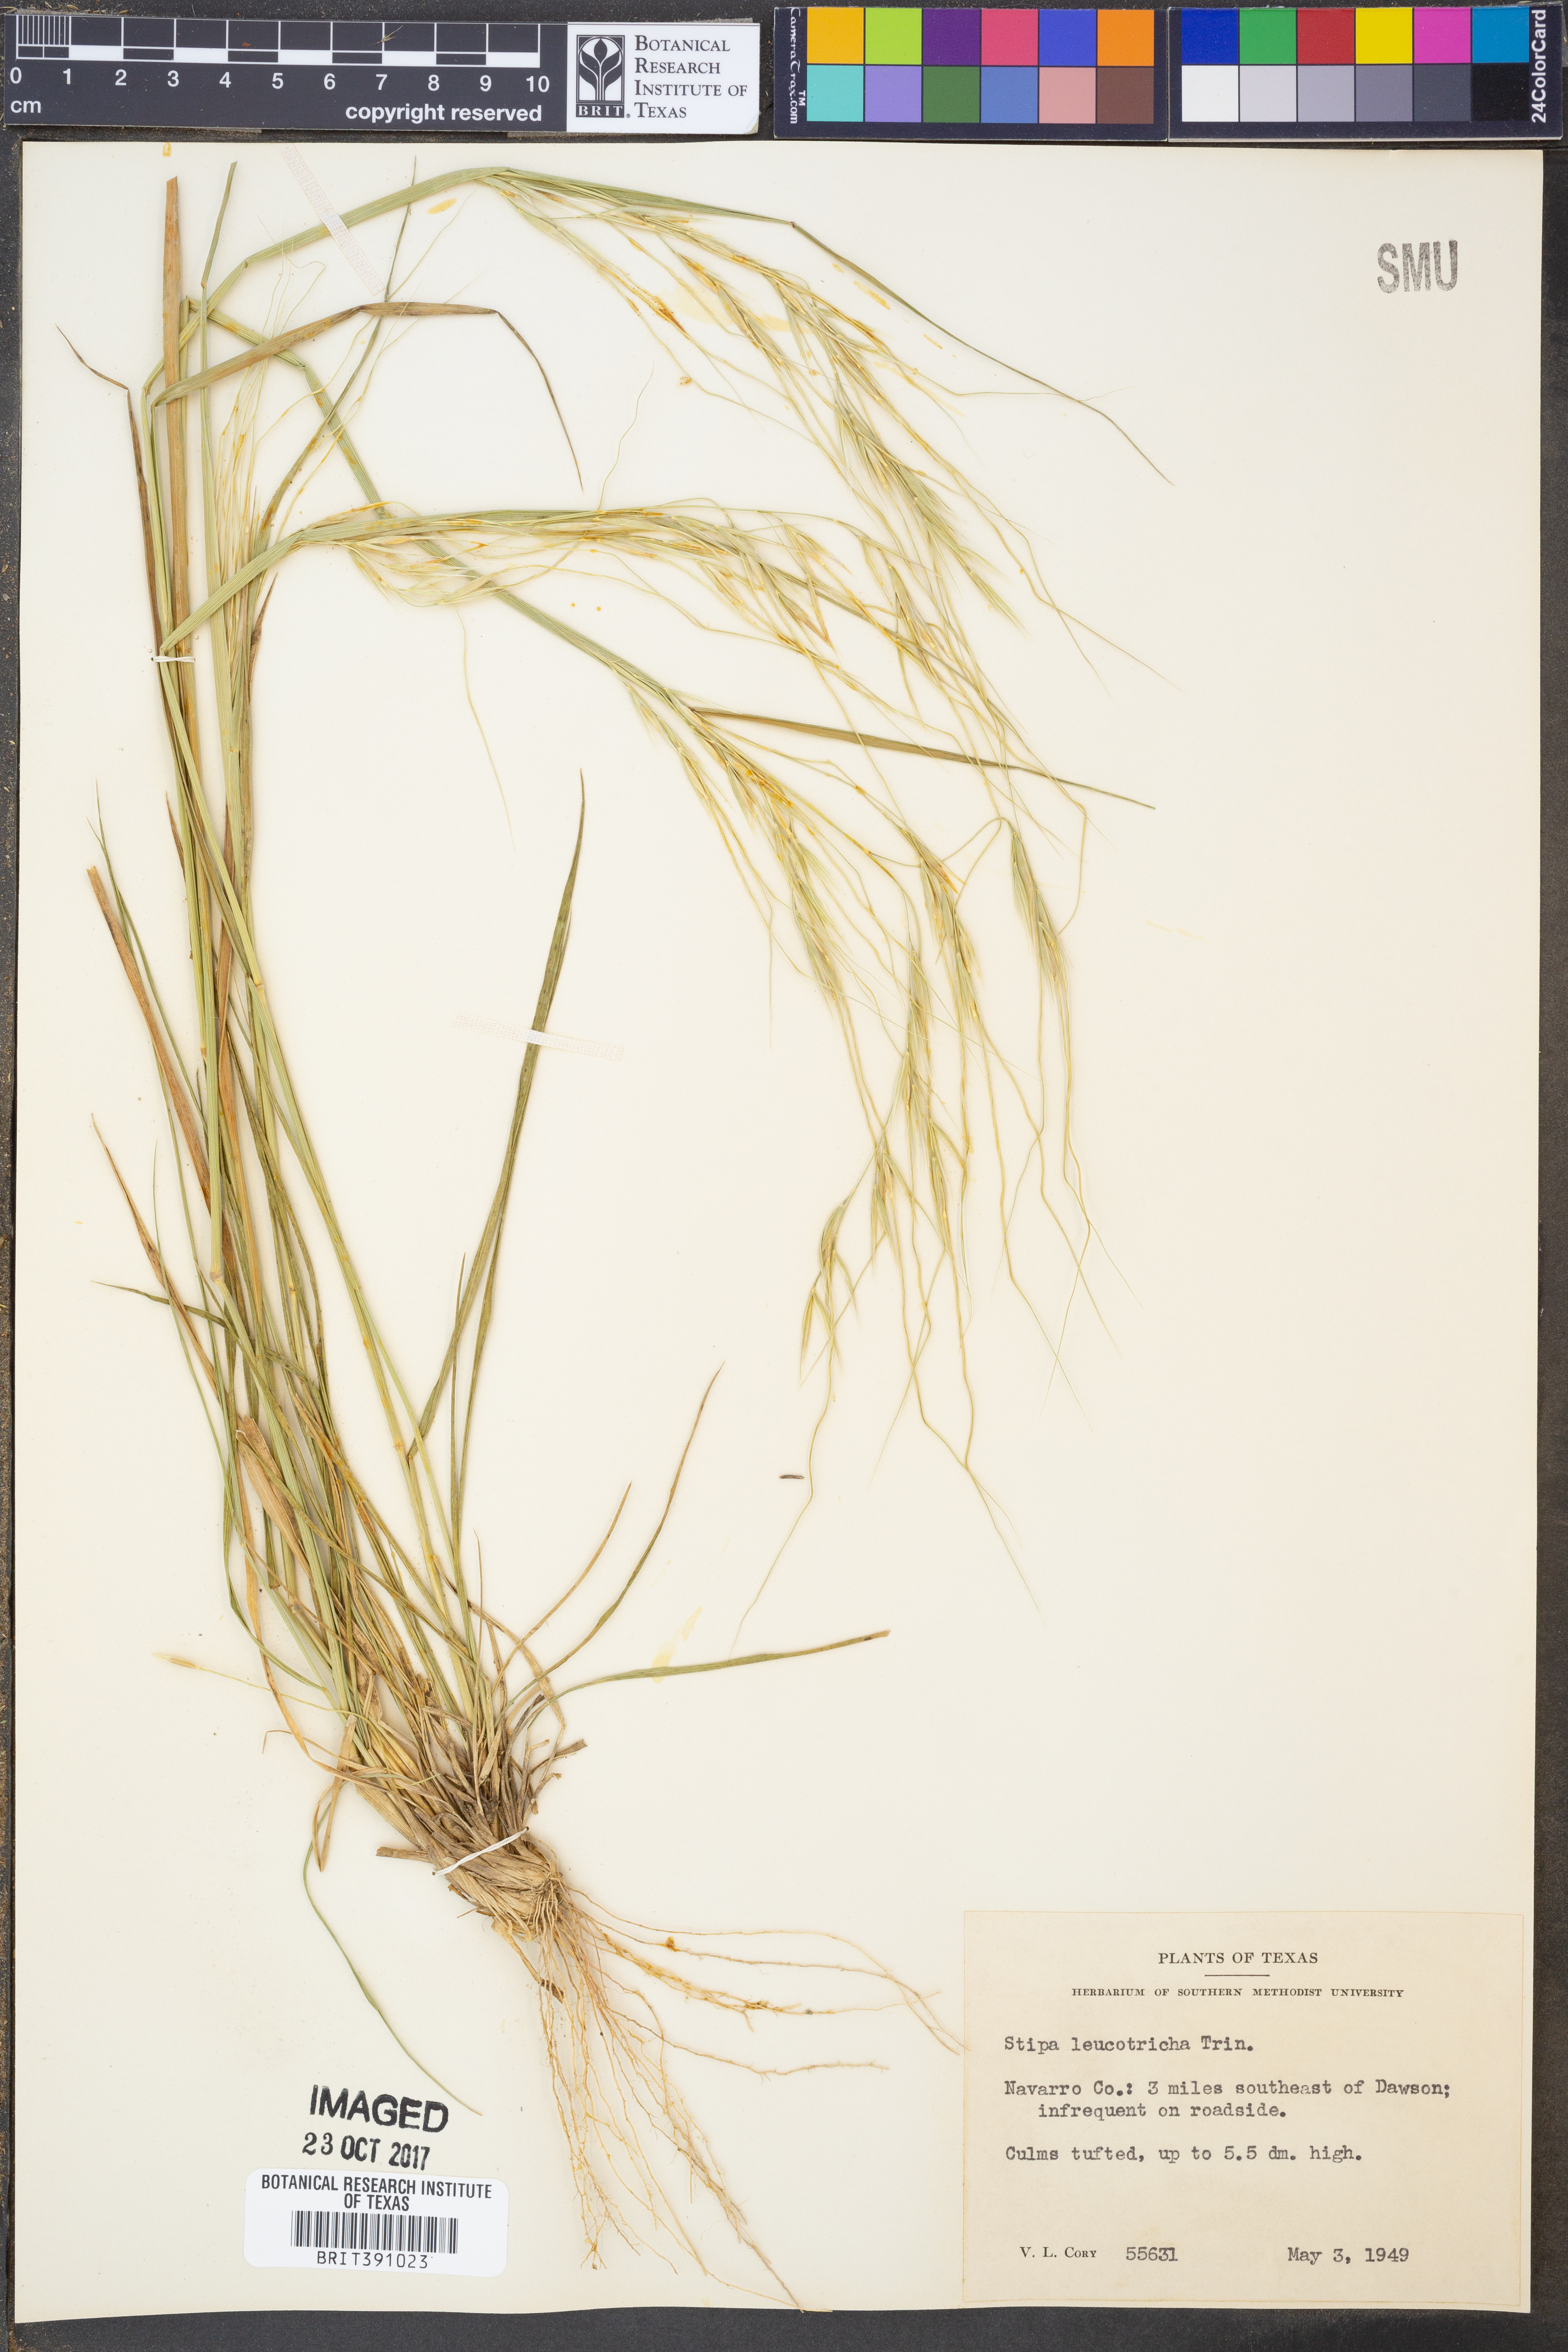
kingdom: Plantae
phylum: Tracheophyta
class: Liliopsida
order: Poales
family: Poaceae
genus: Nassella
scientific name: Nassella leucotricha
